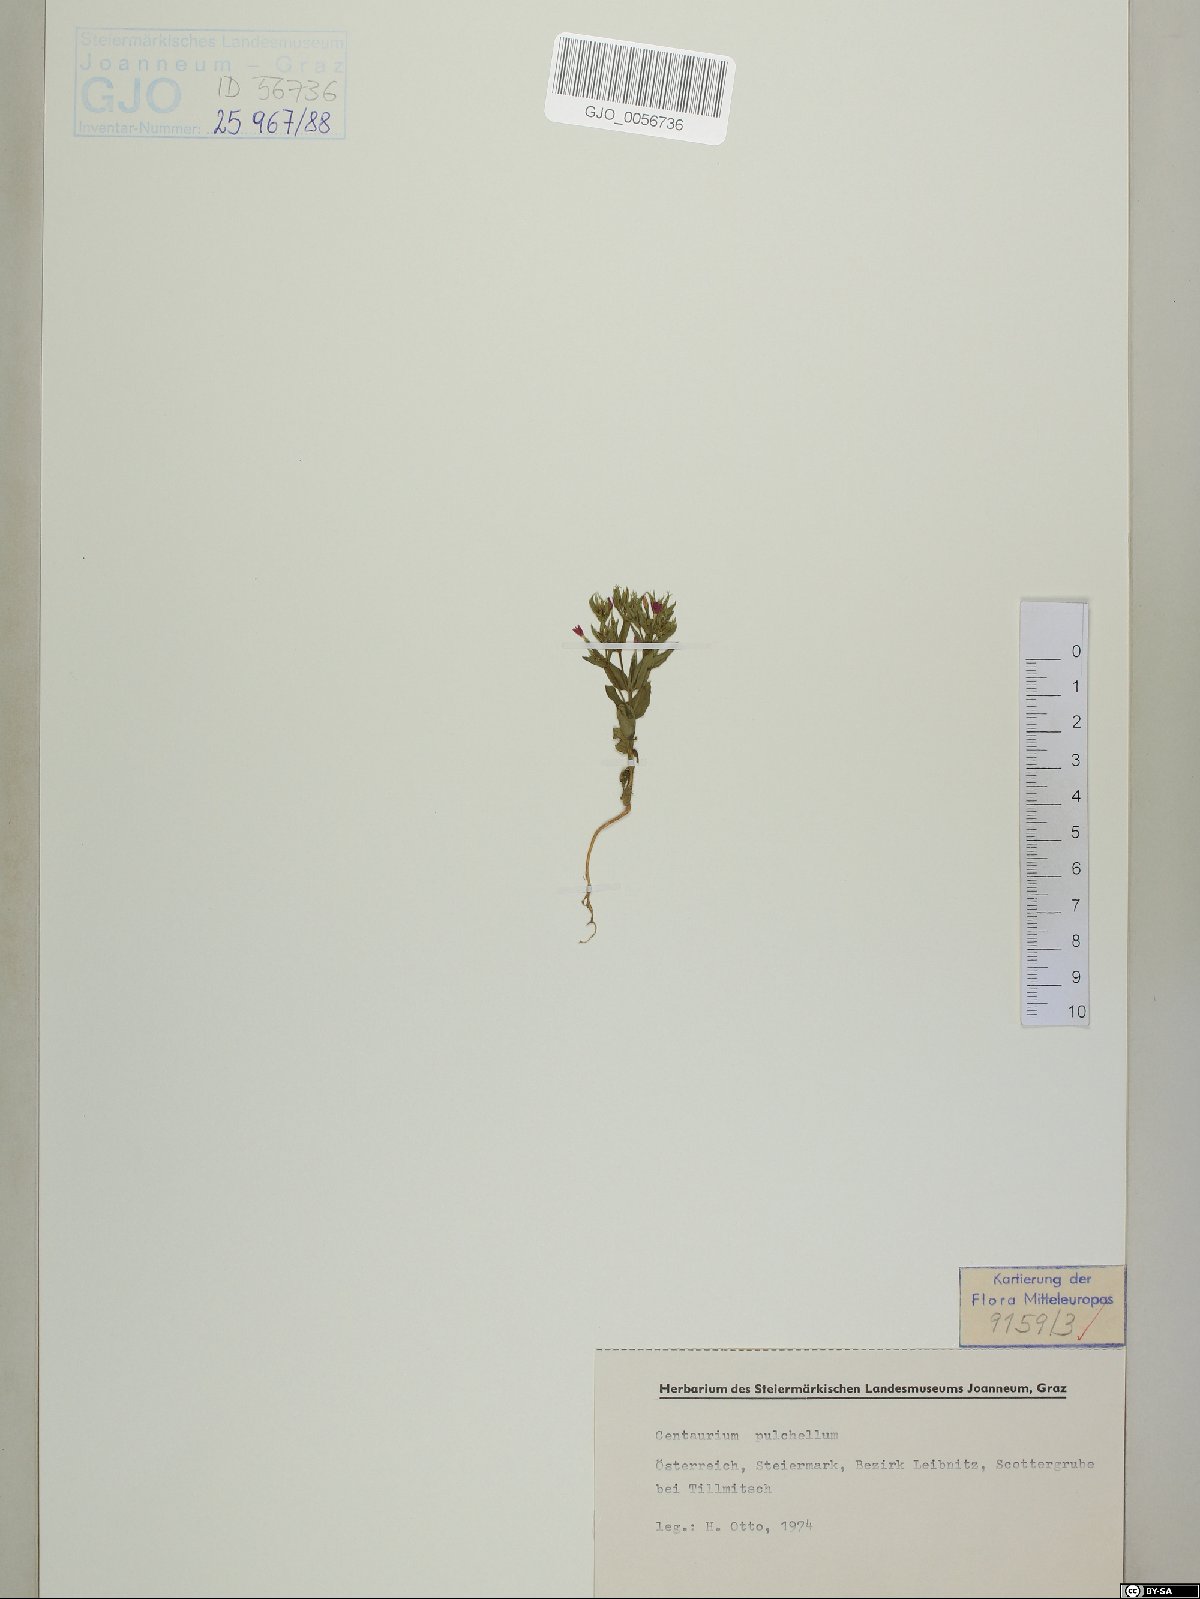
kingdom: Plantae
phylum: Tracheophyta
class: Magnoliopsida
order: Gentianales
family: Gentianaceae
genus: Centaurium
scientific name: Centaurium pulchellum
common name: Lesser centaury
